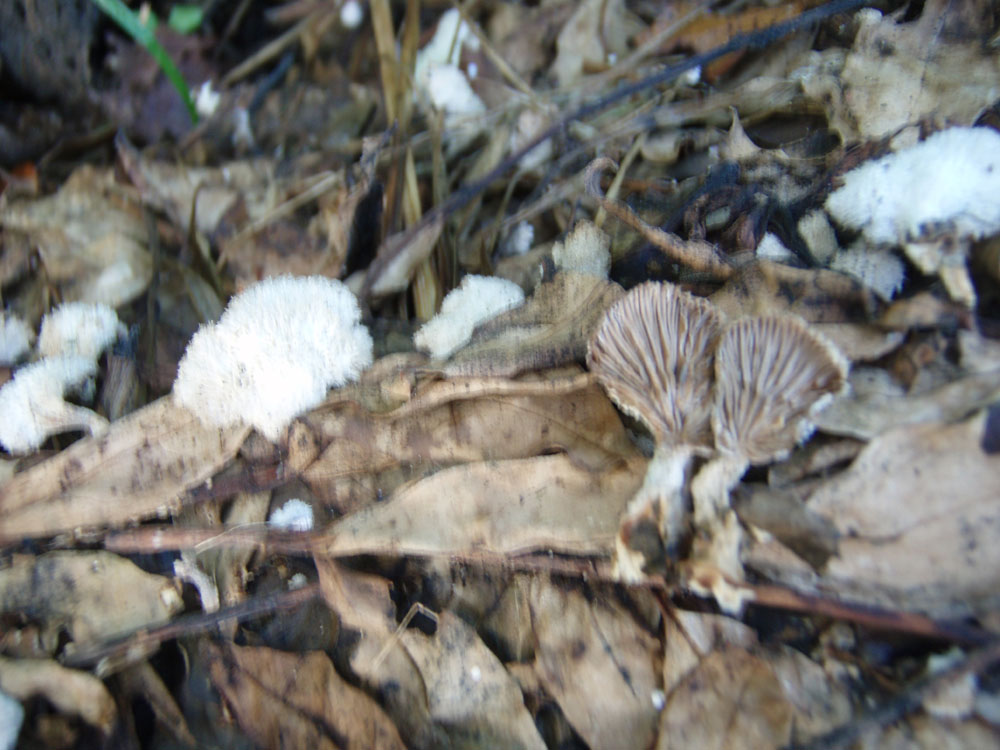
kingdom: Fungi
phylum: Basidiomycota
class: Agaricomycetes
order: Agaricales
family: Schizophyllaceae
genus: Schizophyllum
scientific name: Schizophyllum commune
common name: kløvblad
